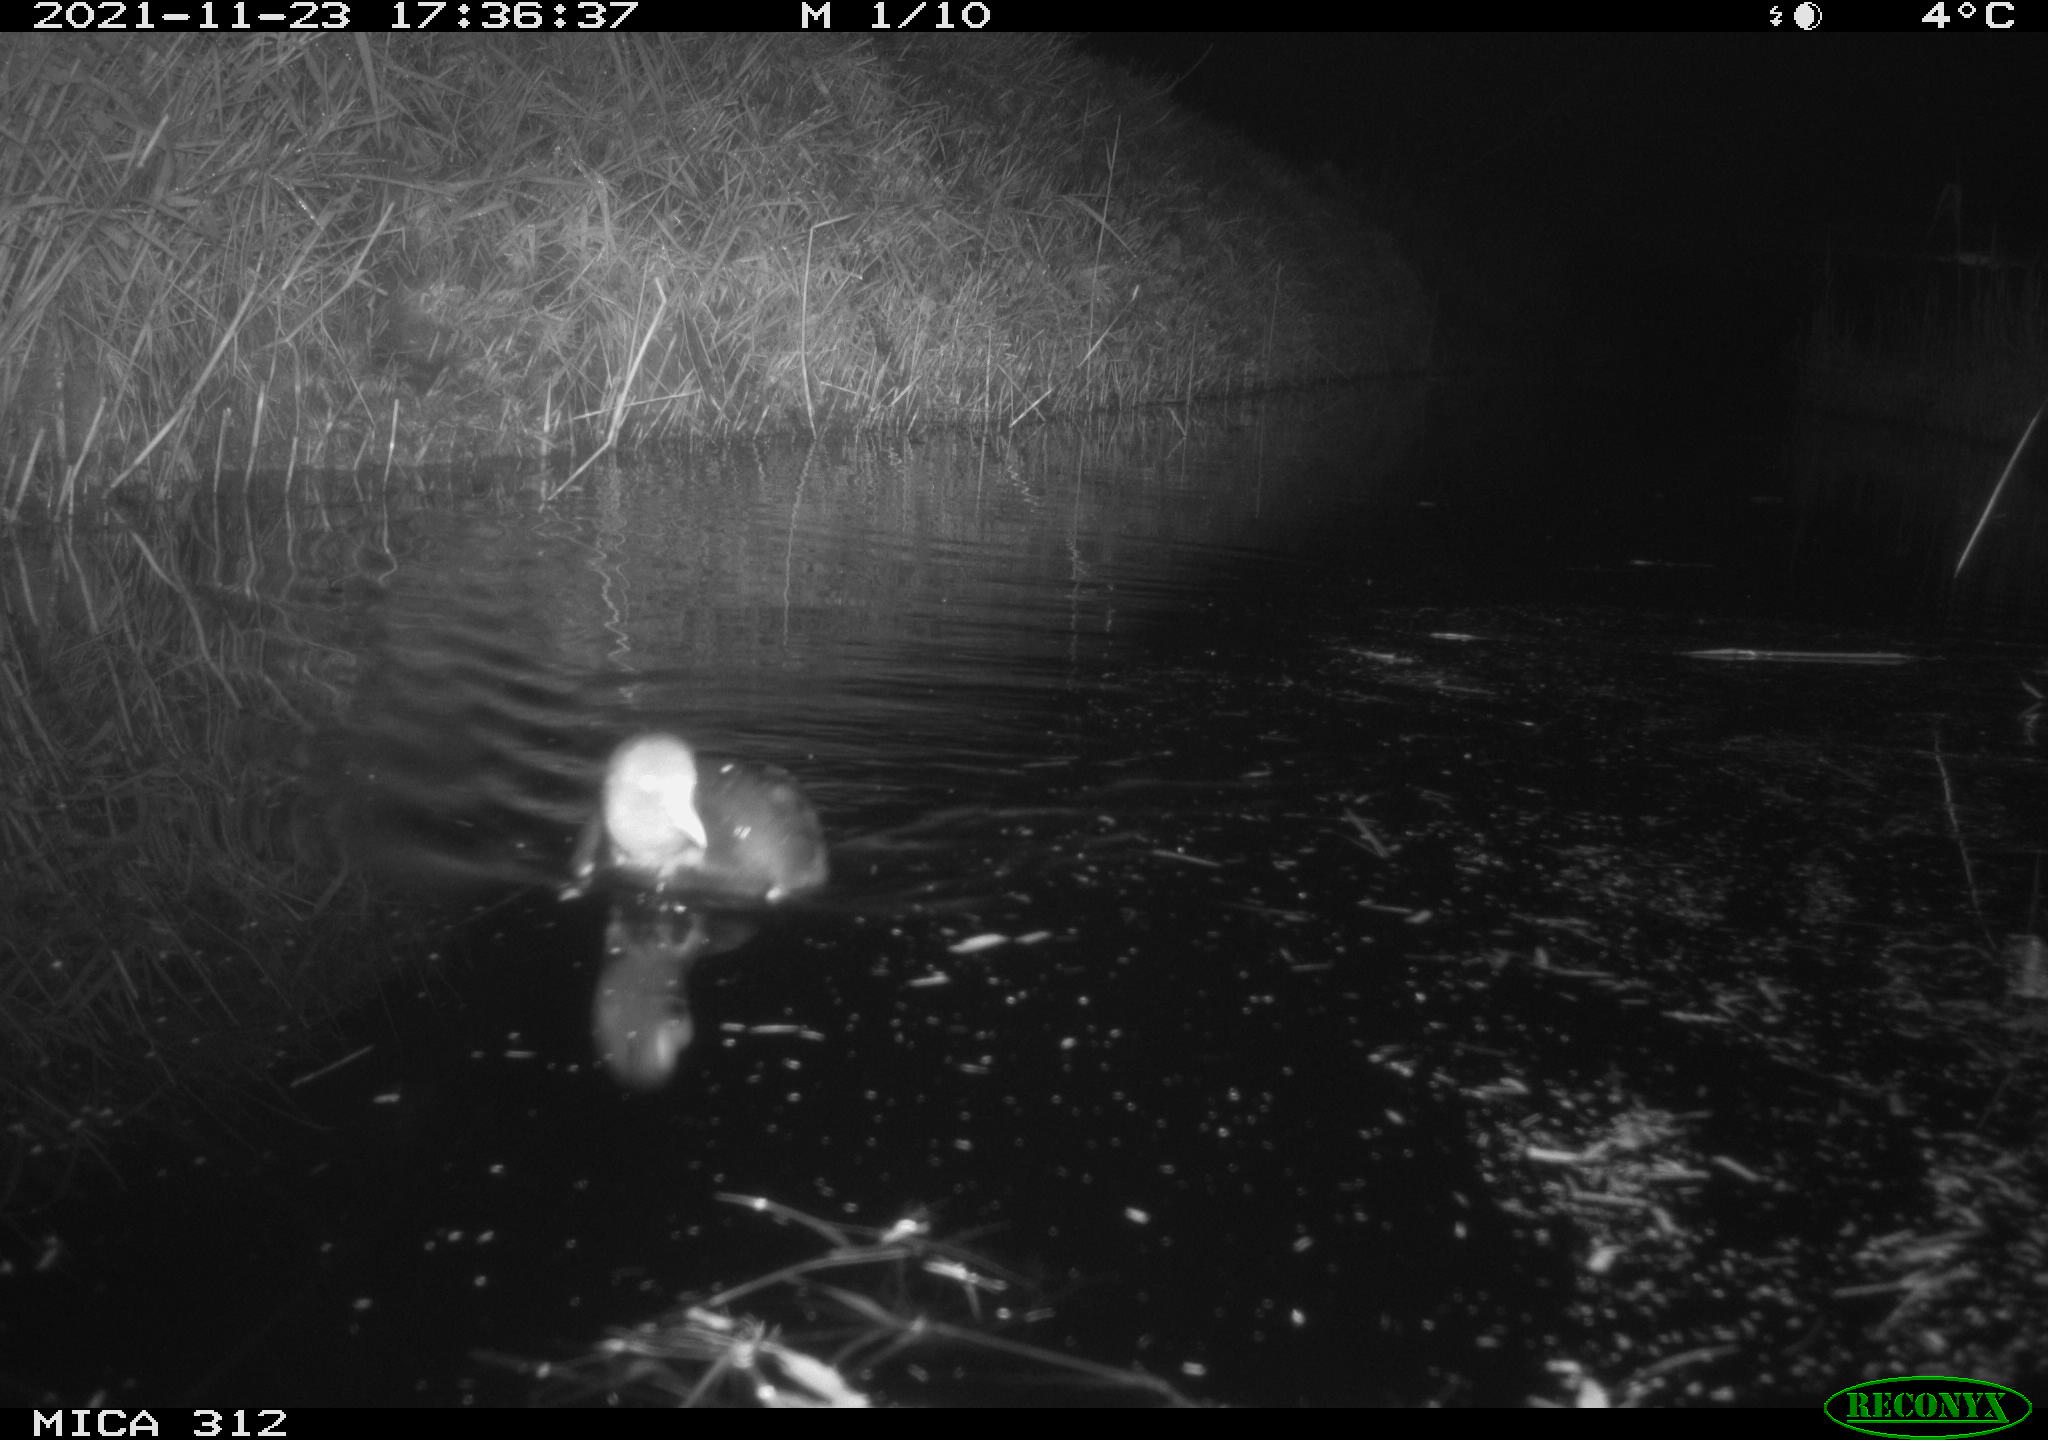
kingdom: Animalia
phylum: Chordata
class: Aves
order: Gruiformes
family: Rallidae
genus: Gallinula
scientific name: Gallinula chloropus
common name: Common moorhen
